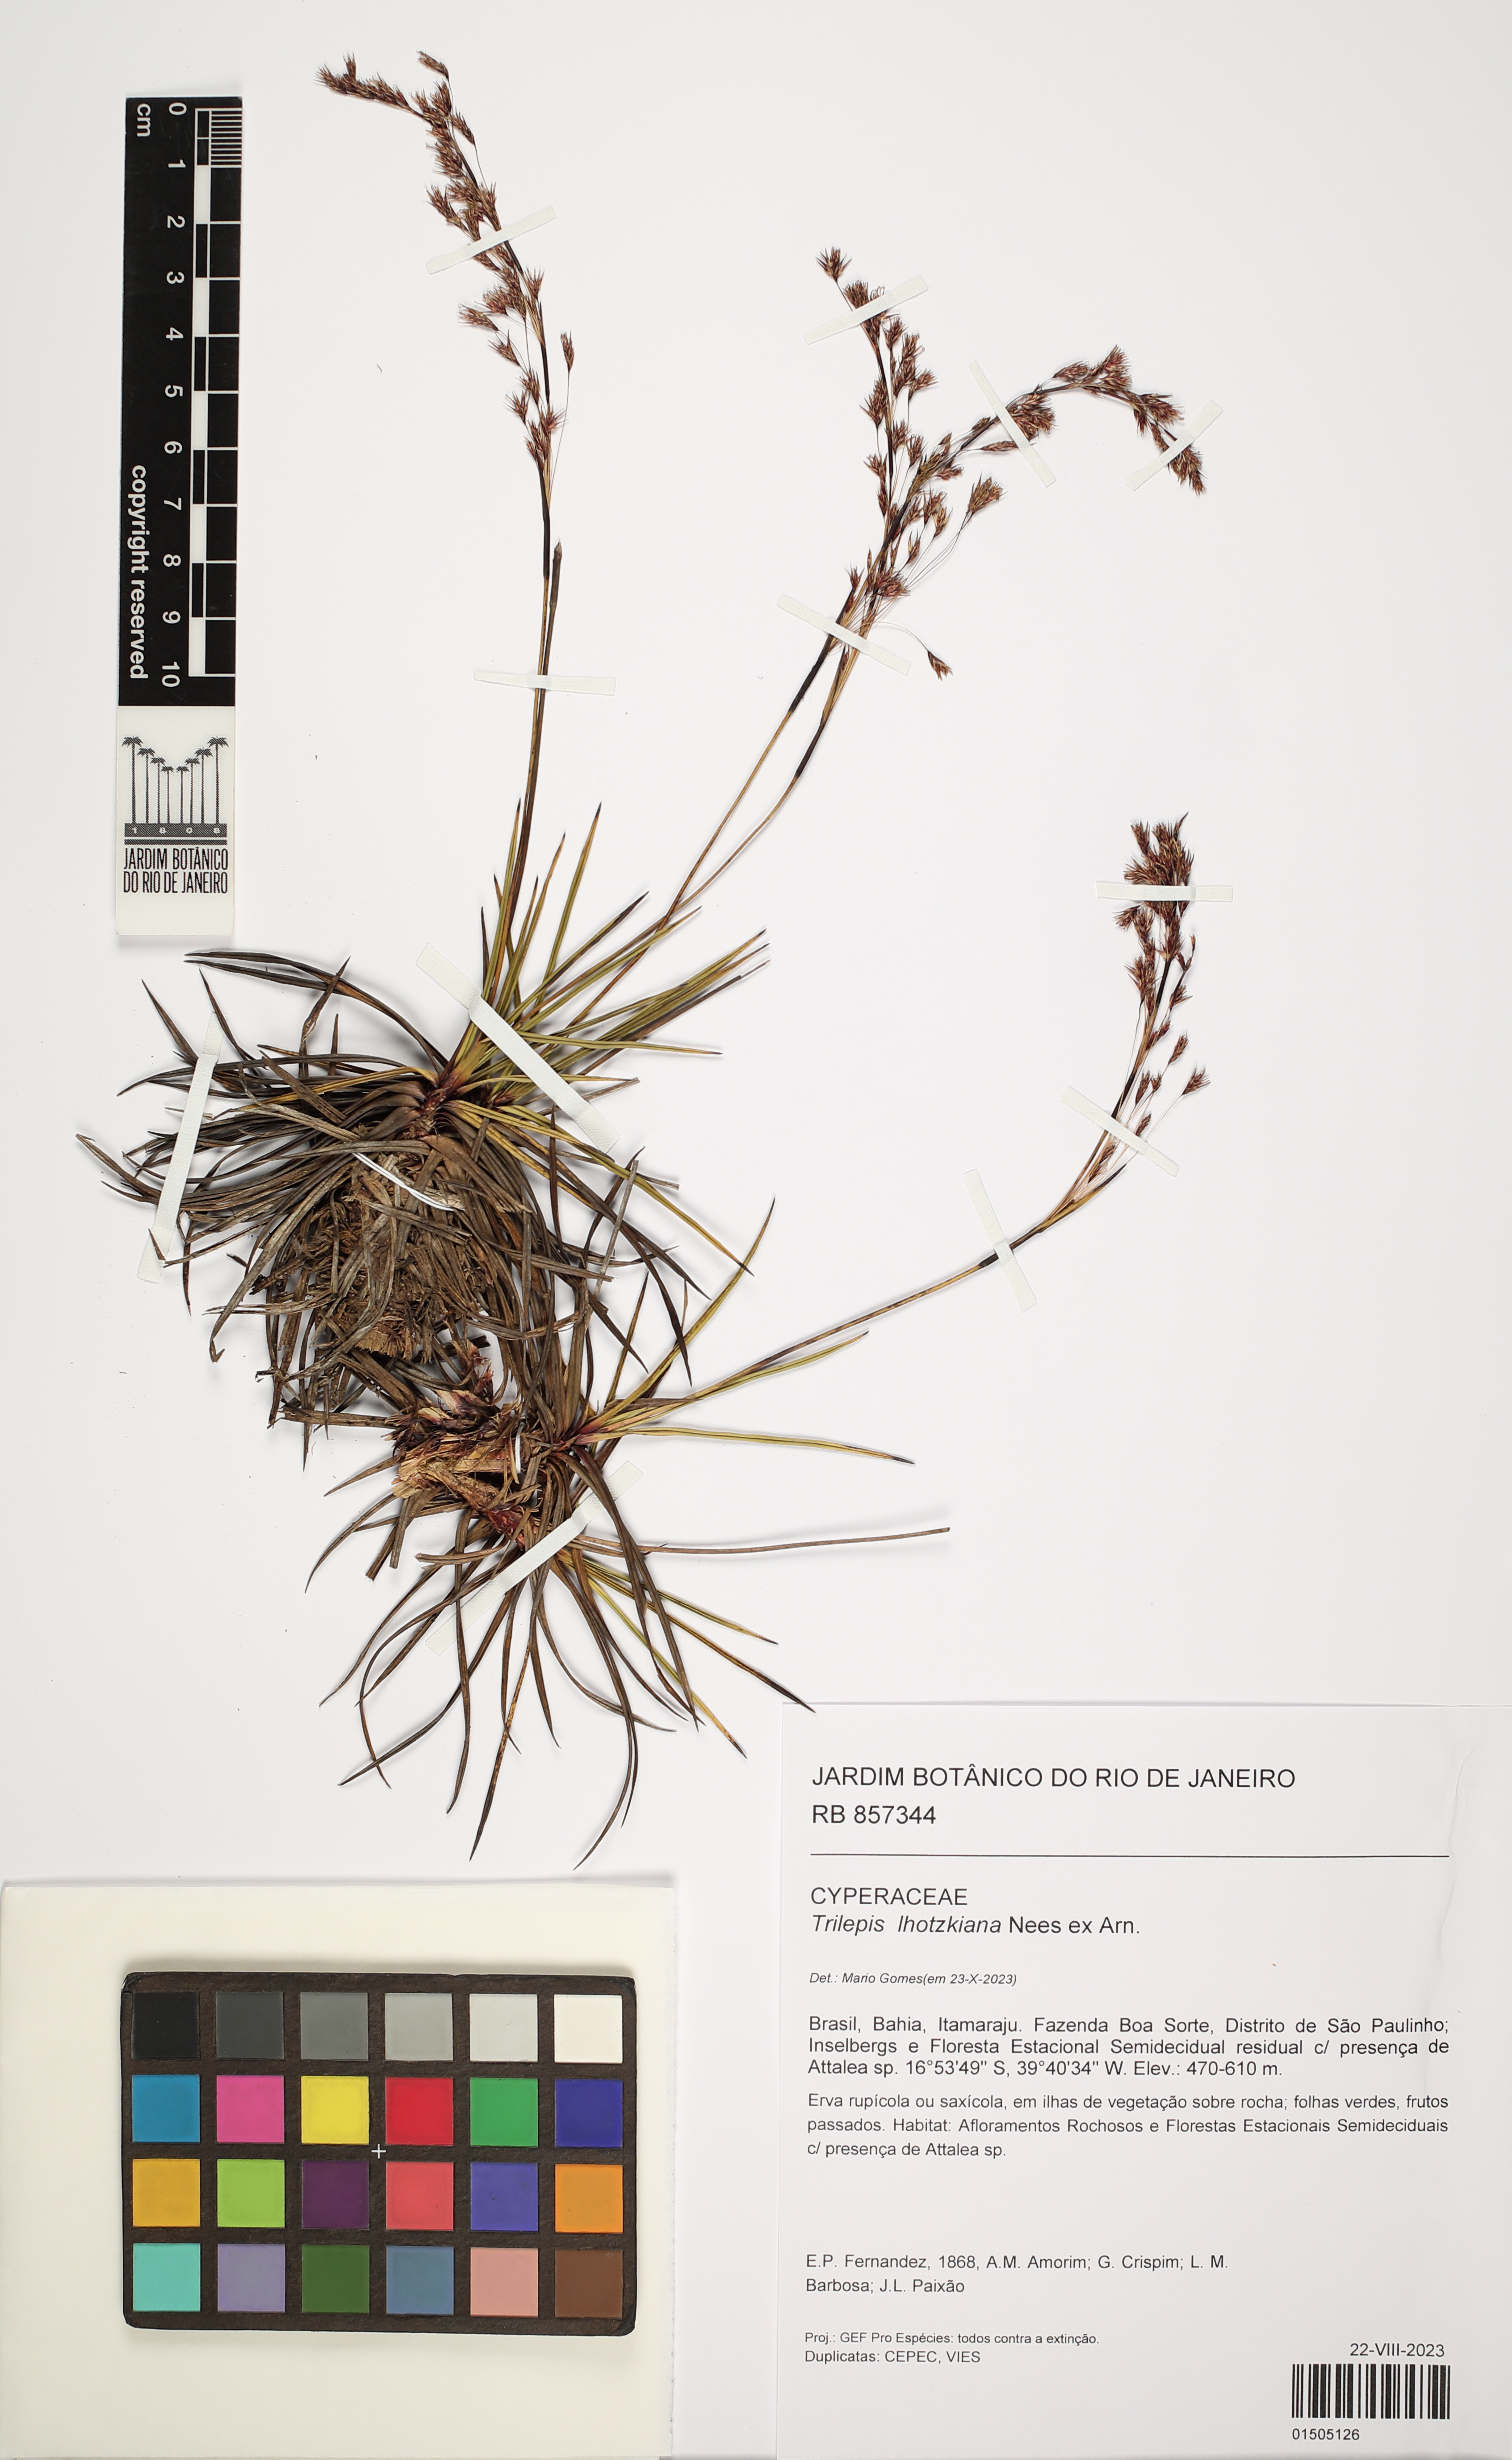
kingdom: Plantae
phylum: Tracheophyta
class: Liliopsida
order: Poales
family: Cyperaceae
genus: Trilepis
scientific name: Trilepis lhotzkiana
